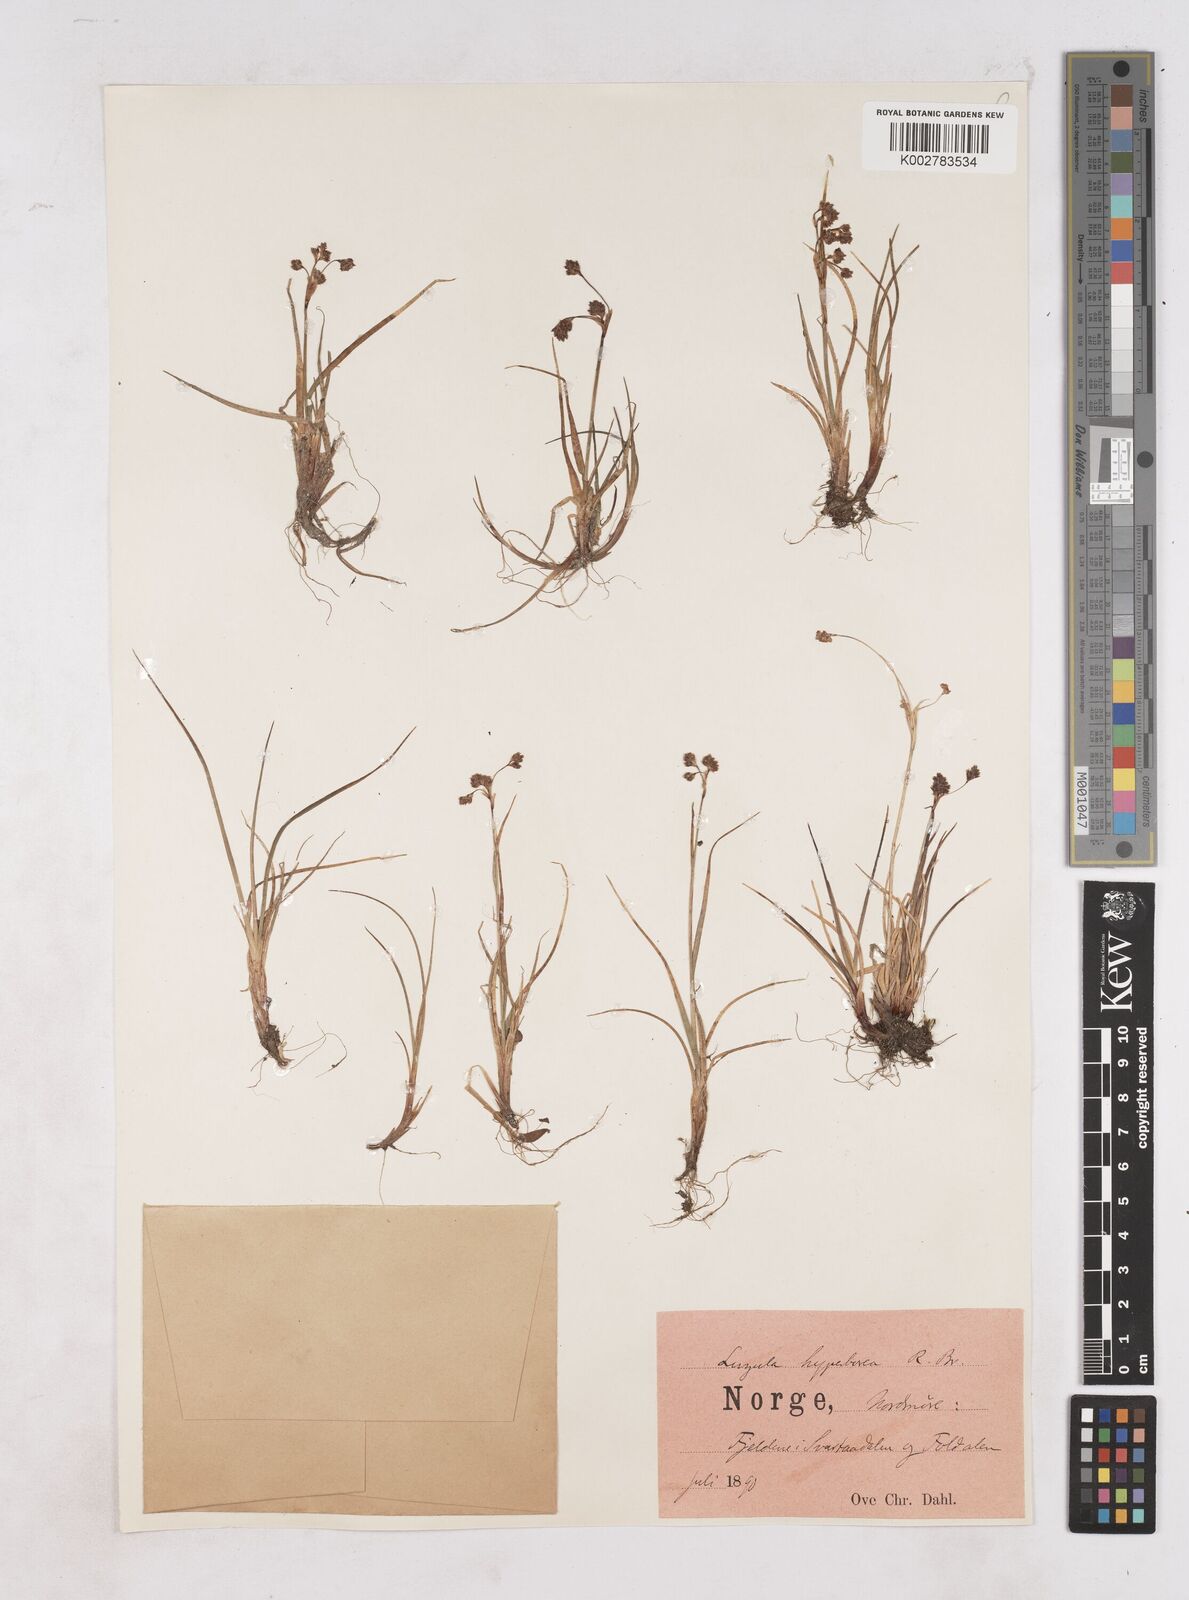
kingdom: Plantae
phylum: Tracheophyta
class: Liliopsida
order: Poales
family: Juncaceae
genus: Luzula
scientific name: Luzula nivalis
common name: Arctic woodrush
